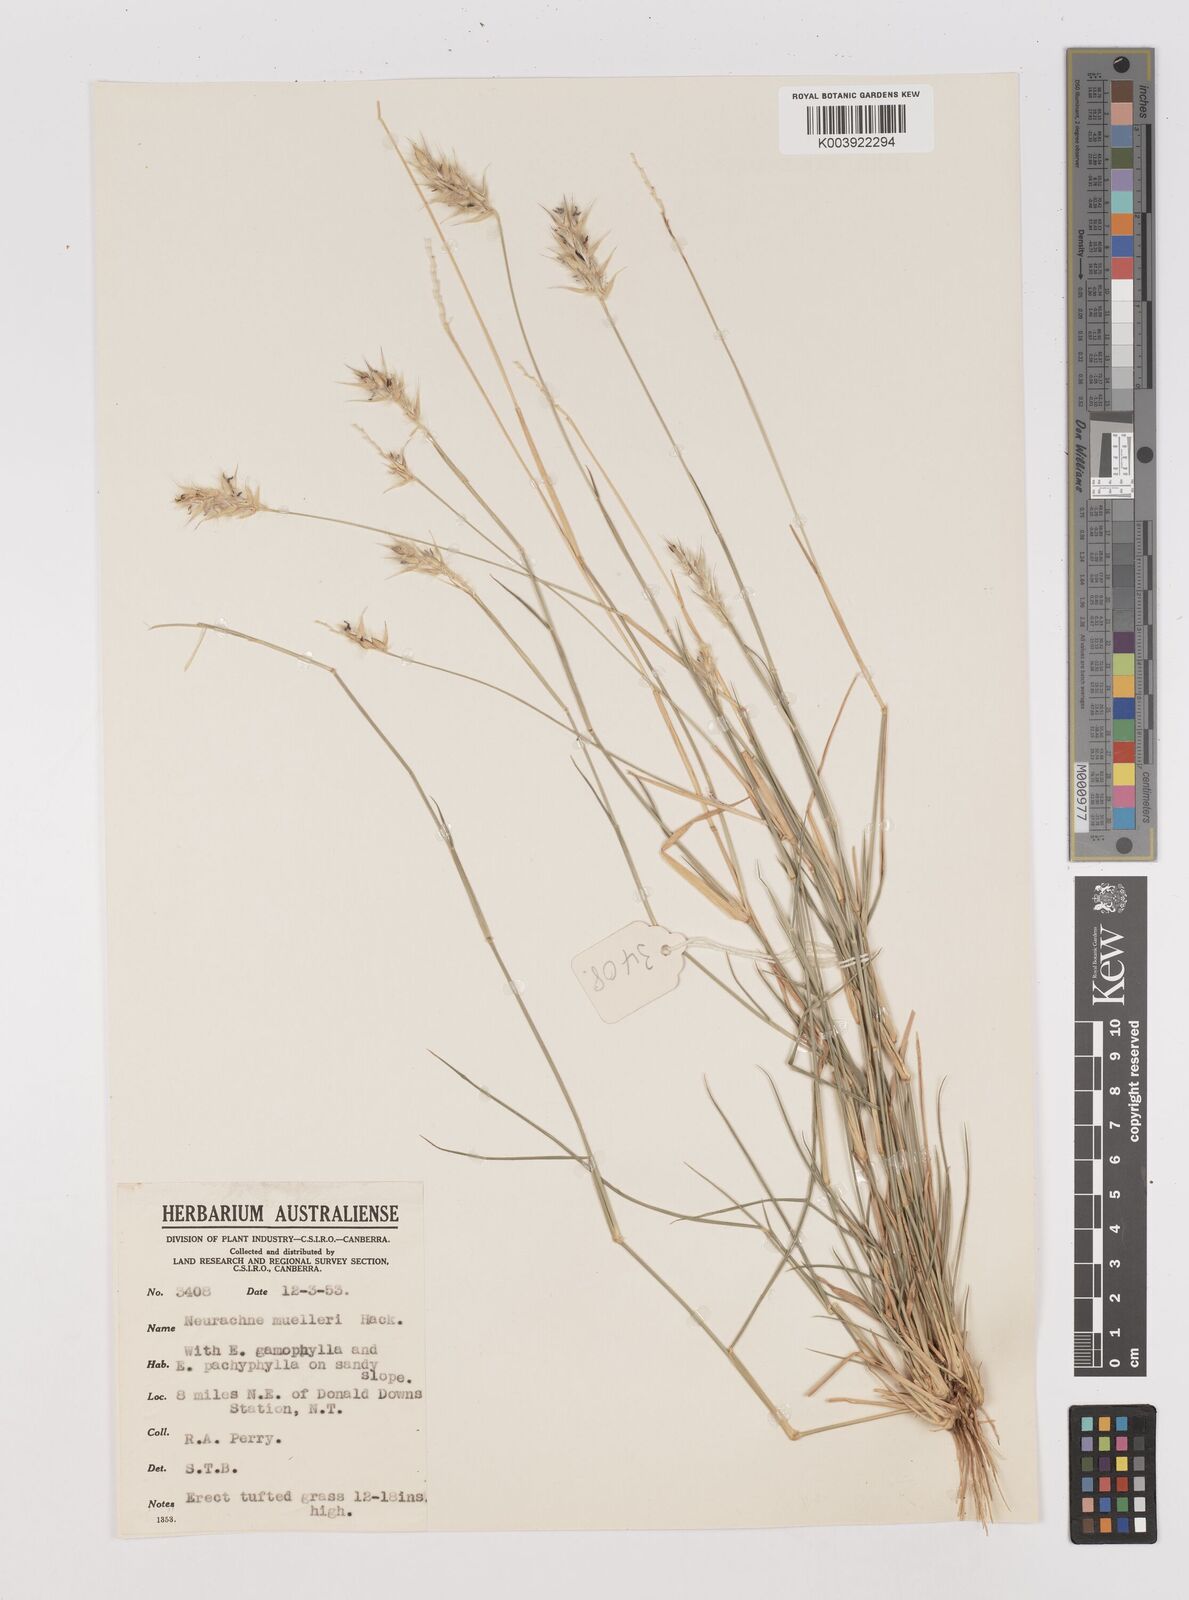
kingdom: Plantae
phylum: Tracheophyta
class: Liliopsida
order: Poales
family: Poaceae
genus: Neurachne
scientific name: Neurachne muelleri
